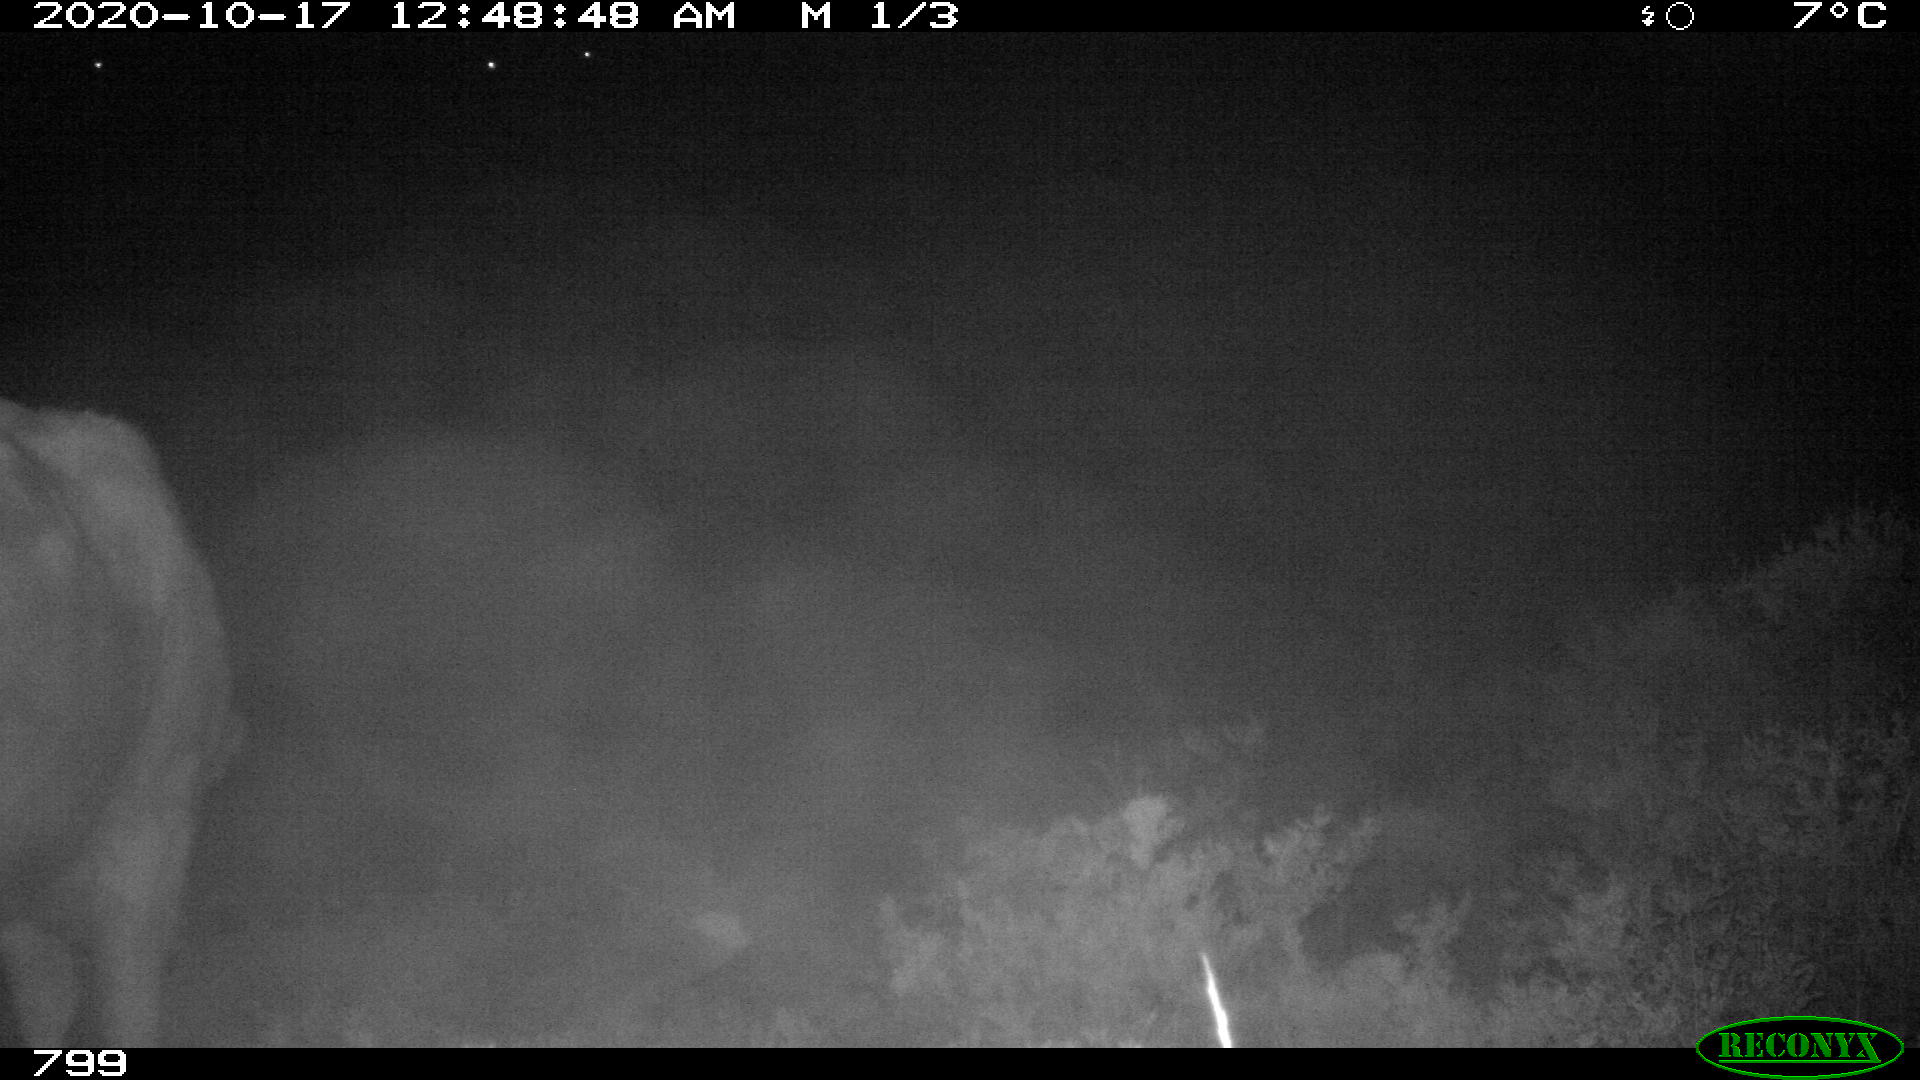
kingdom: Animalia
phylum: Chordata
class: Mammalia
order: Artiodactyla
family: Bovidae
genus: Bos
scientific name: Bos taurus
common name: Domesticated cattle
